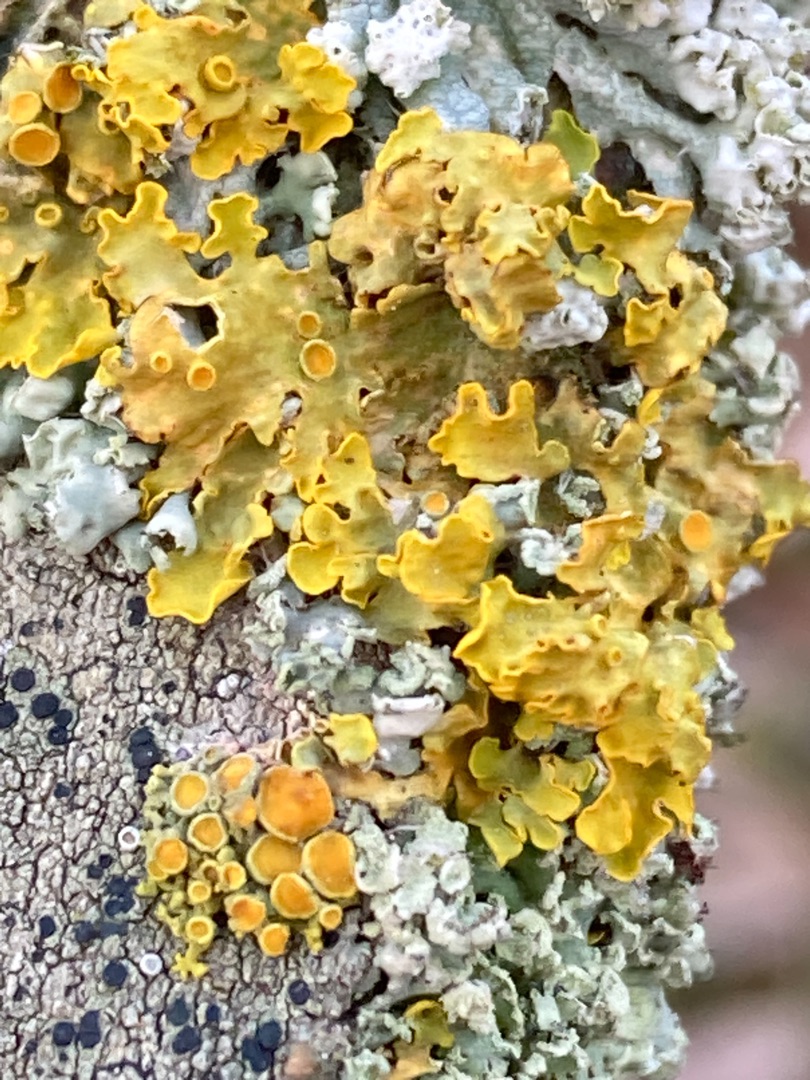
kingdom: Fungi
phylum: Ascomycota
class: Lecanoromycetes
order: Teloschistales
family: Teloschistaceae
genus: Xanthoria
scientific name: Xanthoria parietina
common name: Almindelig væggelav
